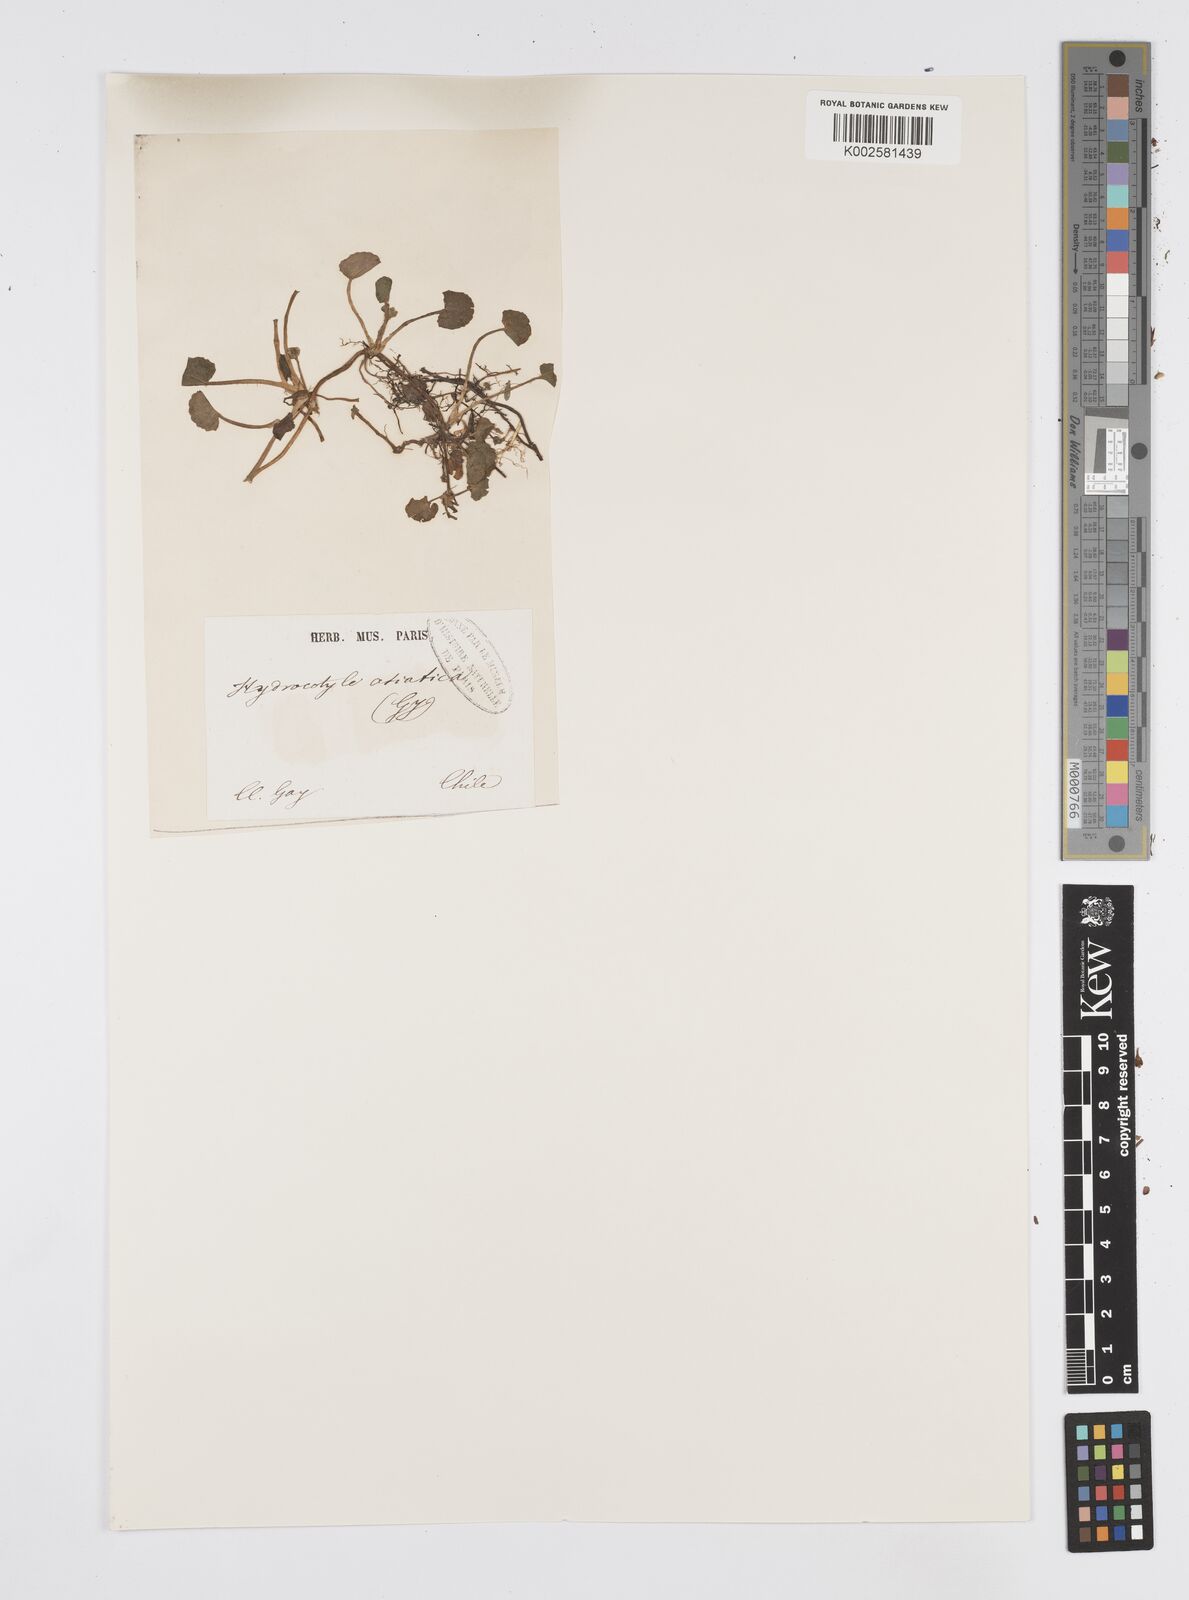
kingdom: Plantae
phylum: Tracheophyta
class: Magnoliopsida
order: Apiales
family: Apiaceae
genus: Centella
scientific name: Centella erecta
